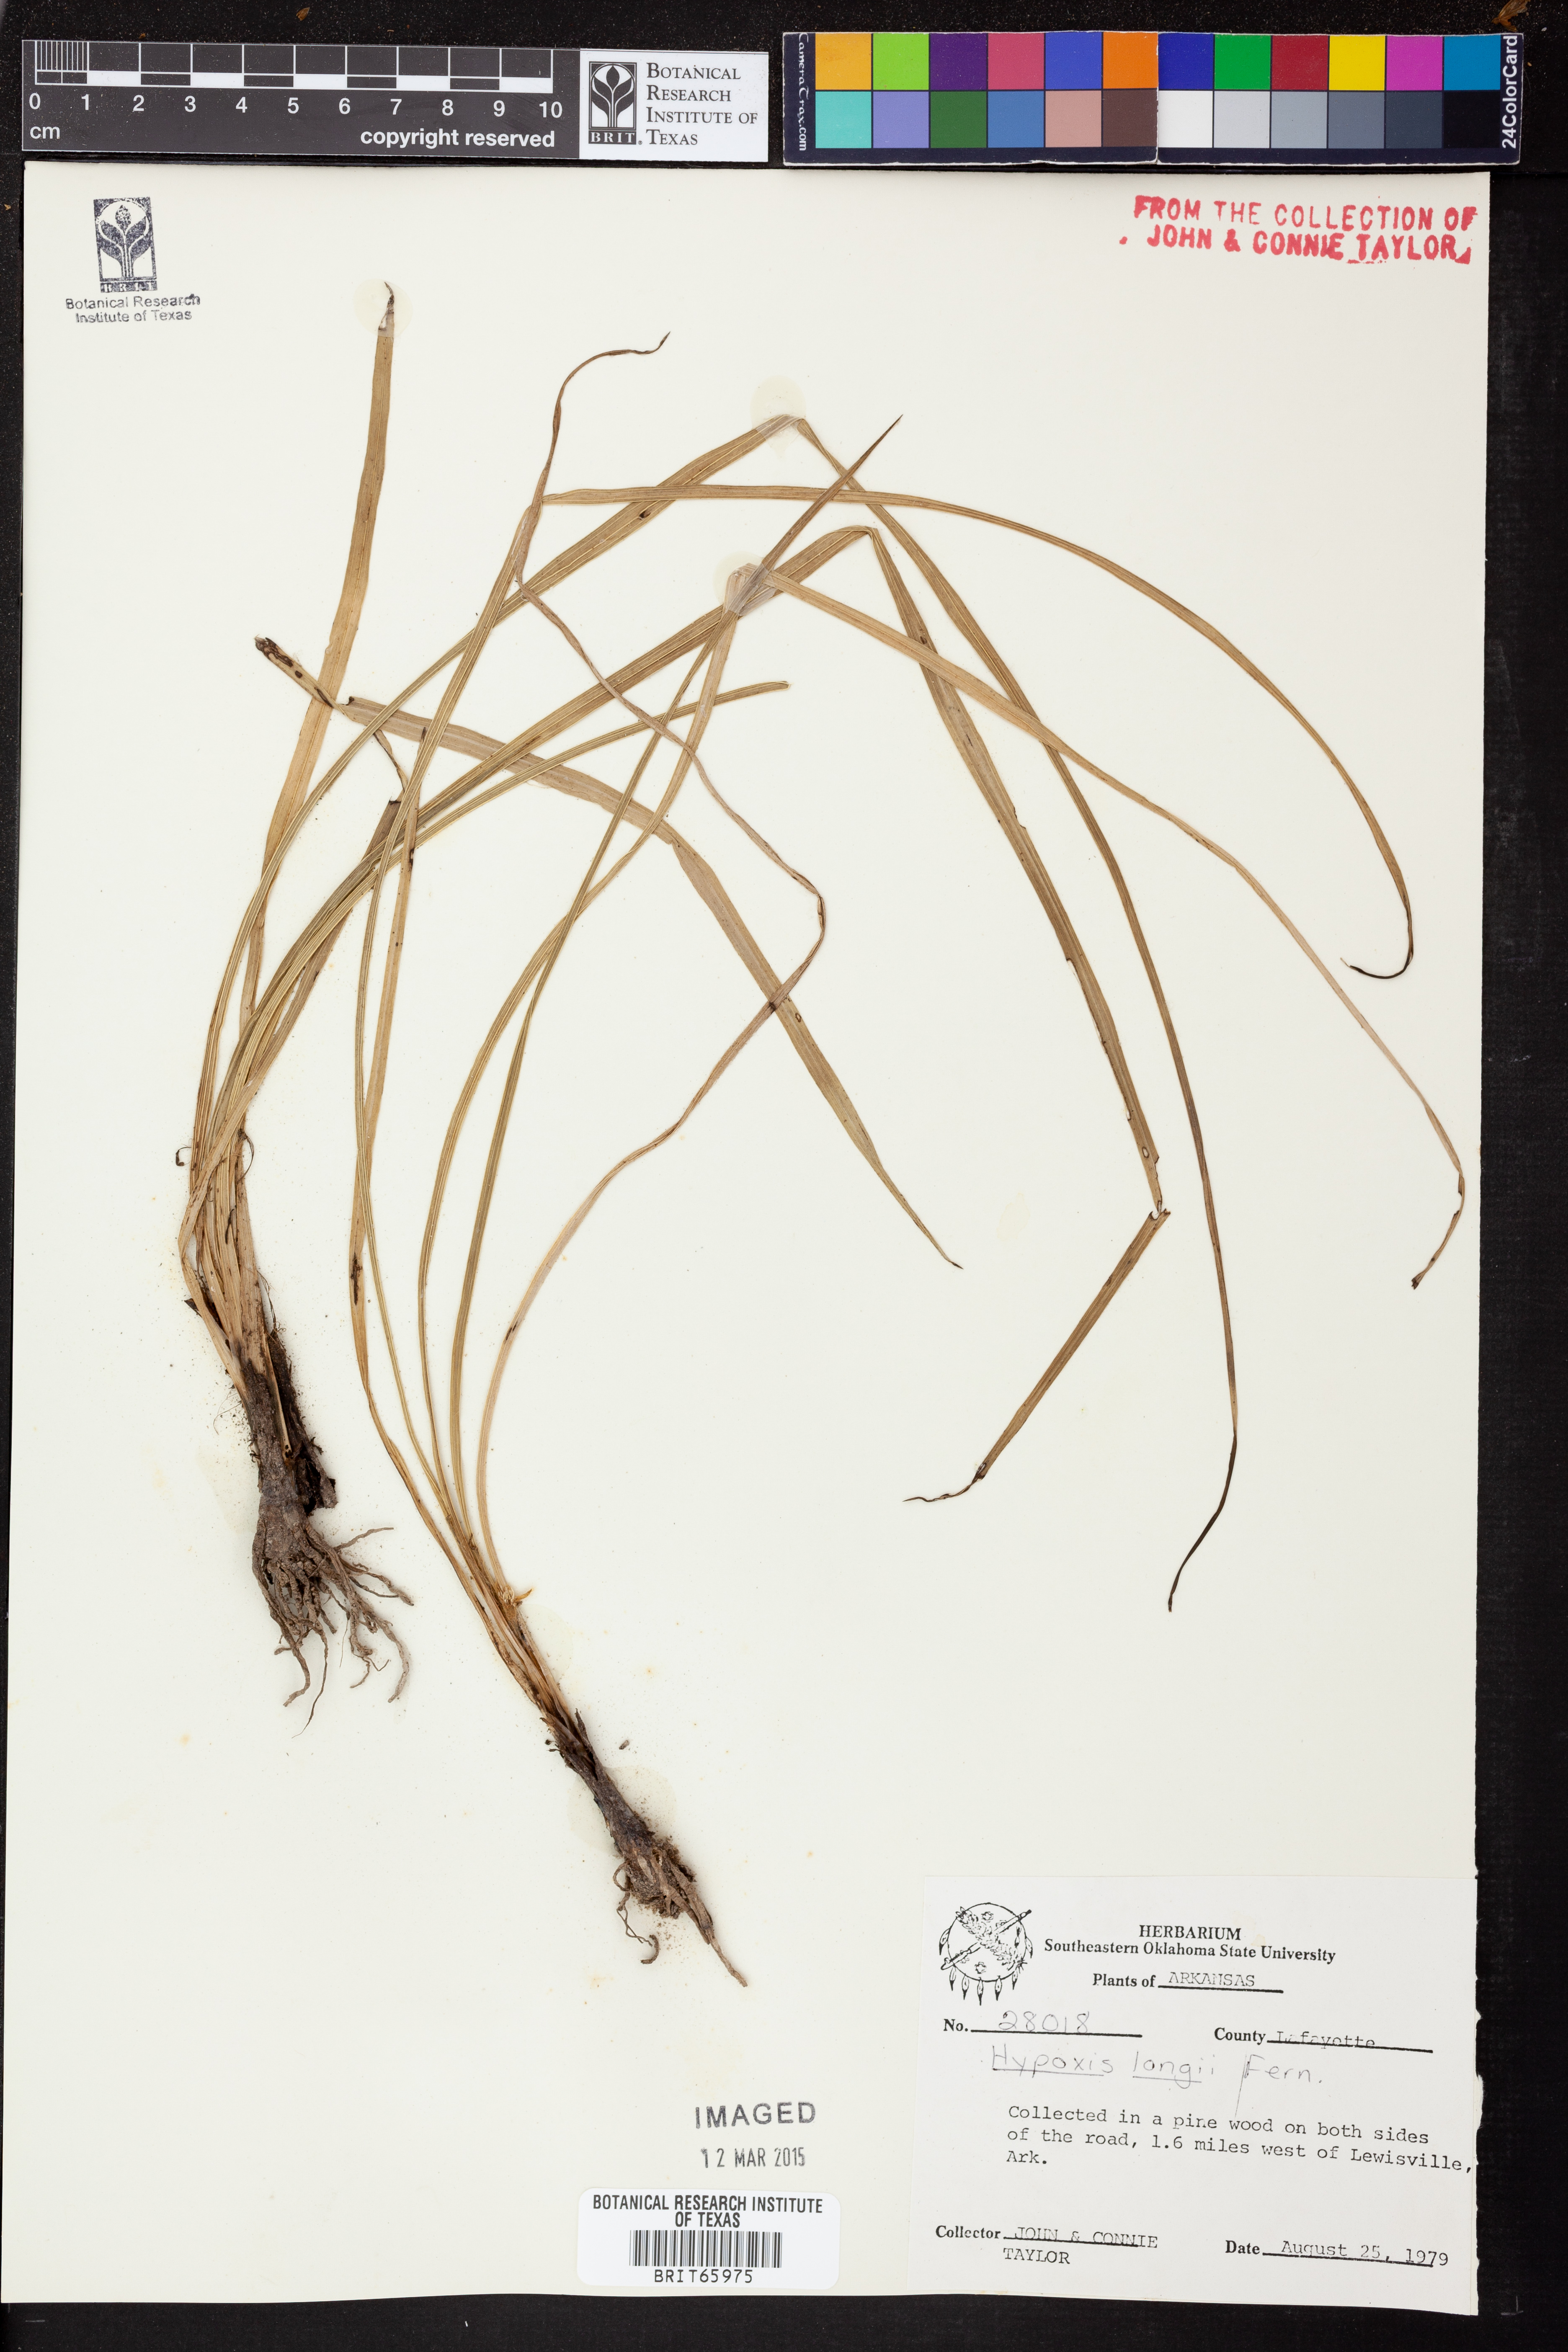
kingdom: Plantae
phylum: Tracheophyta
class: Liliopsida
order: Asparagales
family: Hypoxidaceae
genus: Hypoxis
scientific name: Hypoxis sessilis
